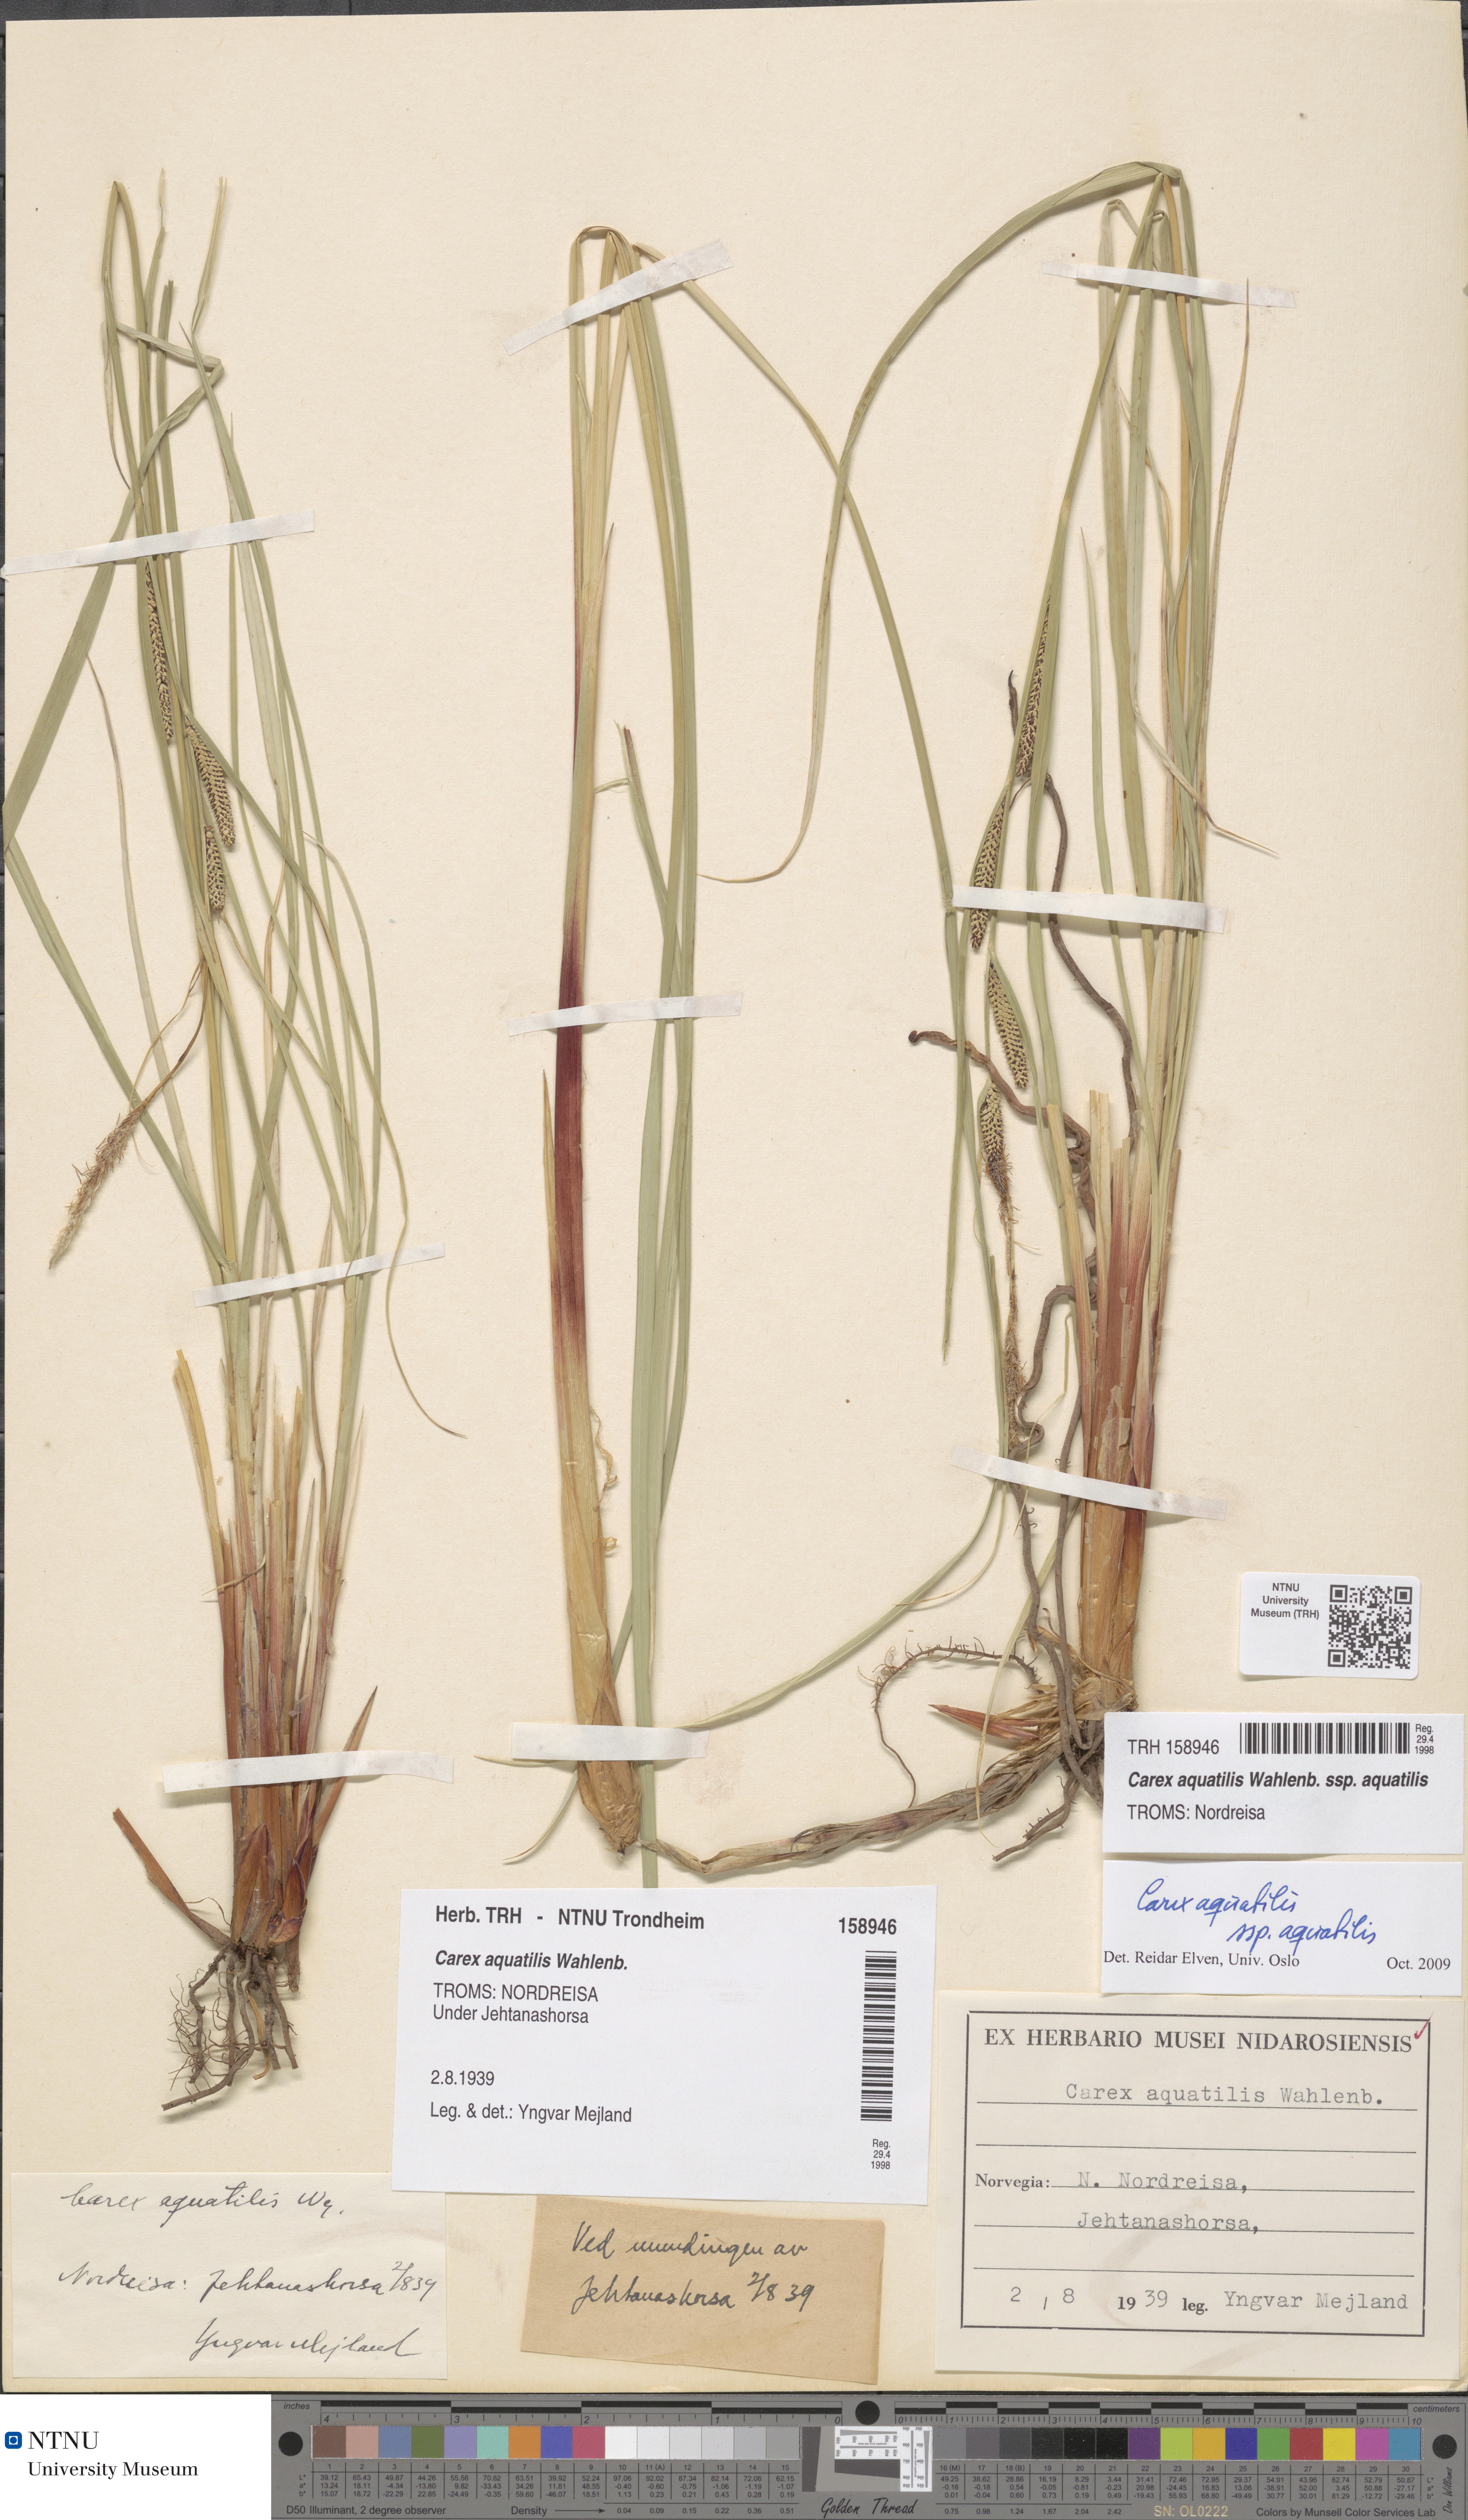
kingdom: Plantae
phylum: Tracheophyta
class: Liliopsida
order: Poales
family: Cyperaceae
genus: Carex
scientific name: Carex aquatilis
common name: Water sedge
